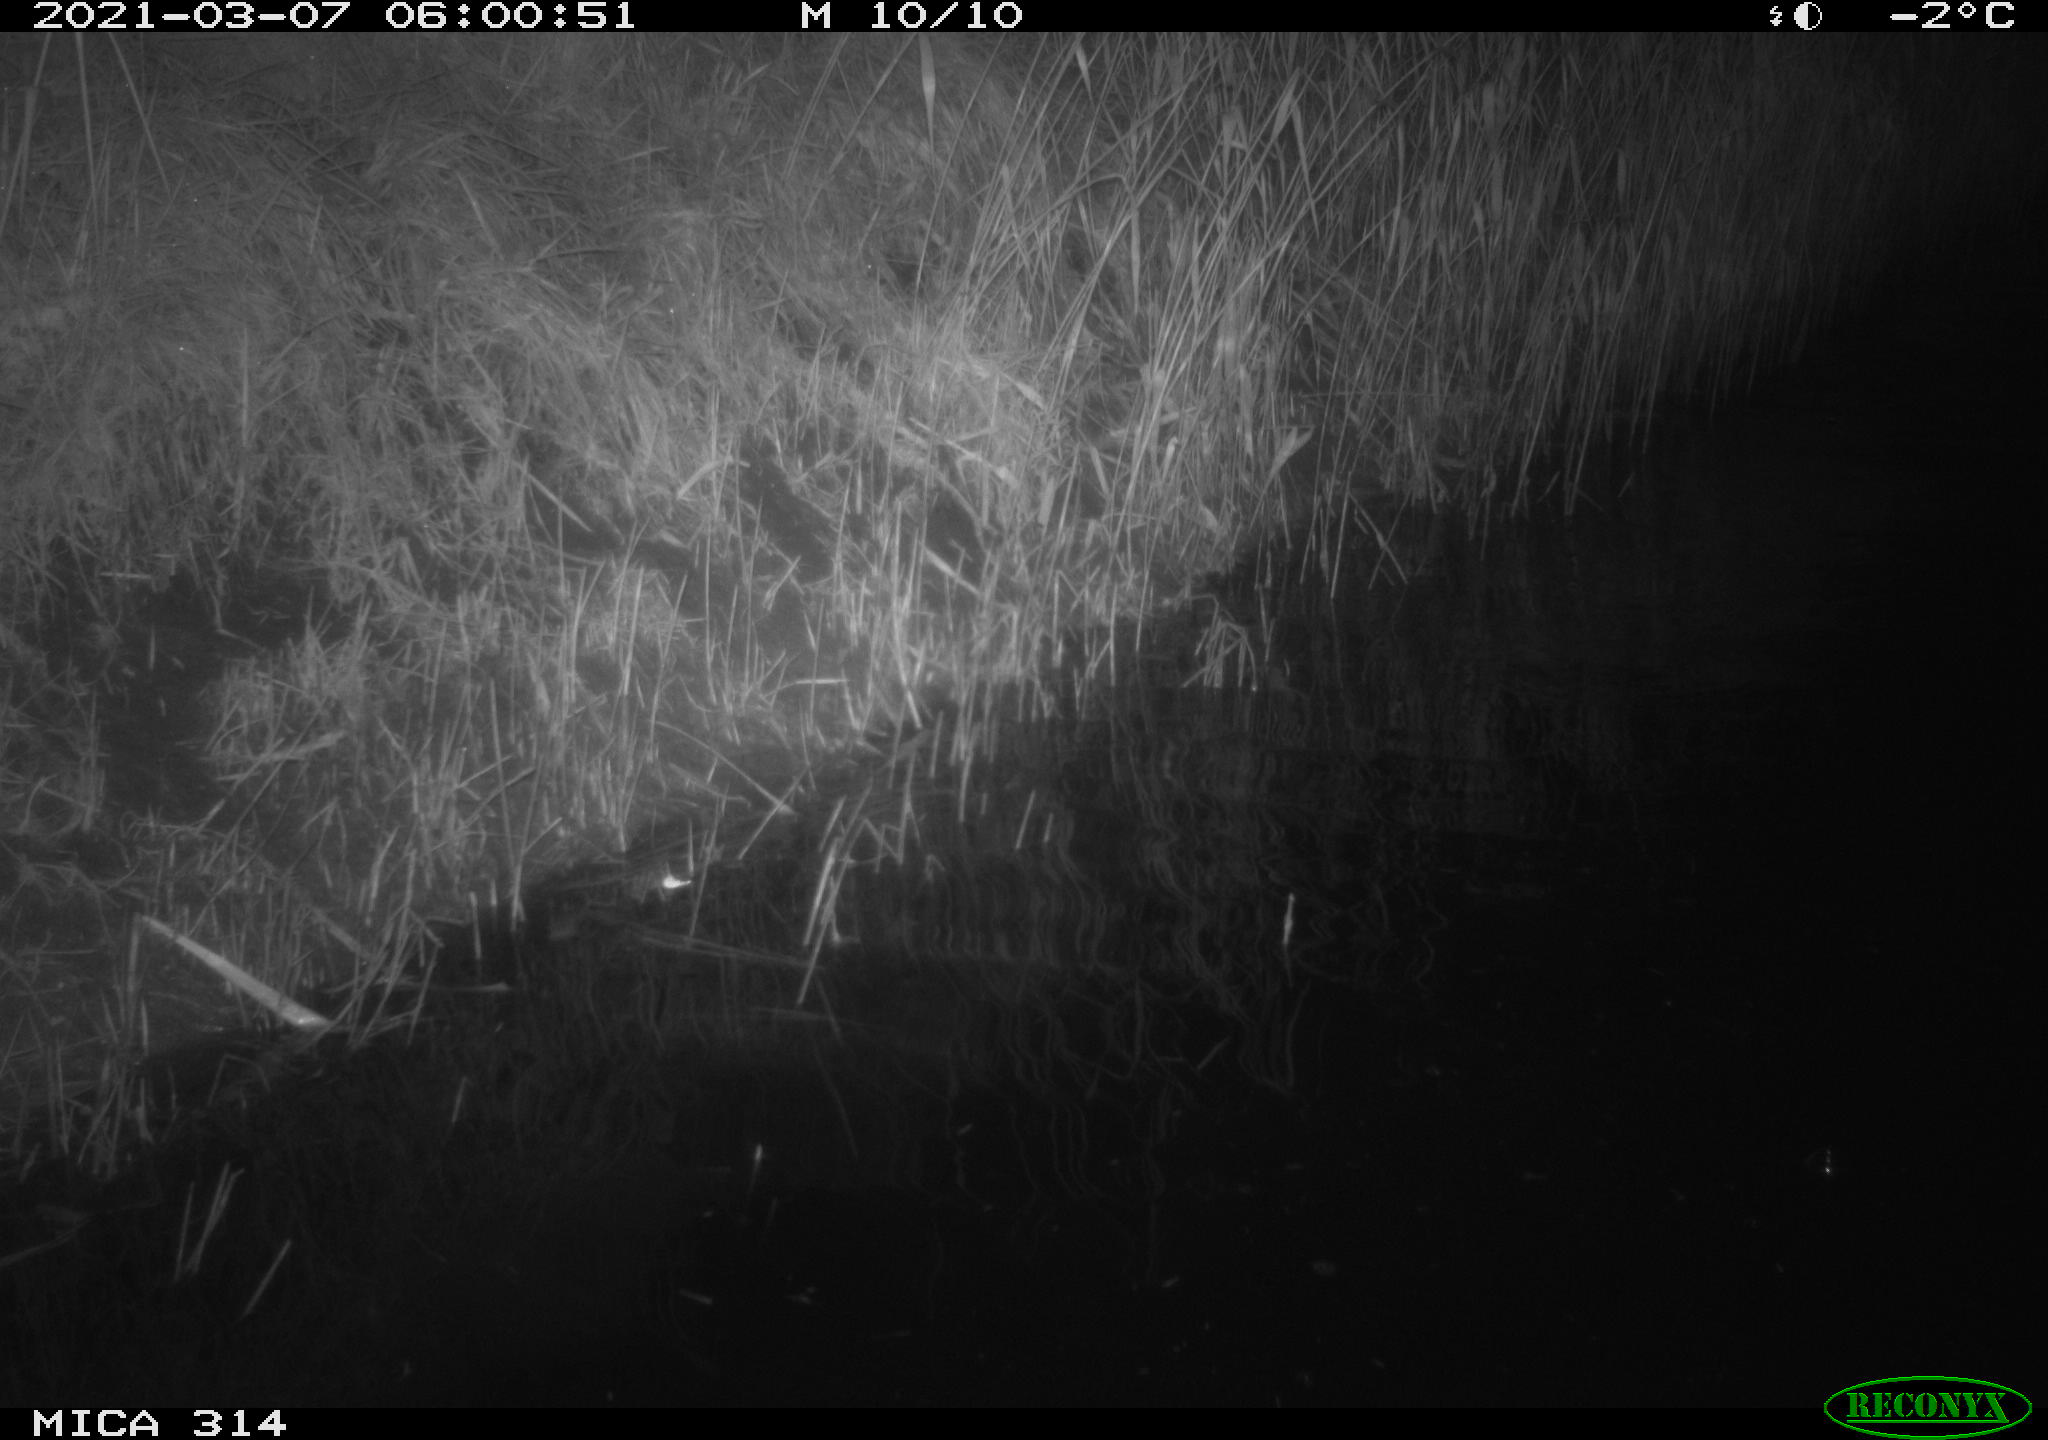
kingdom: Animalia
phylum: Chordata
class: Aves
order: Anseriformes
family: Anatidae
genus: Anas
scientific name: Anas platyrhynchos
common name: Mallard
